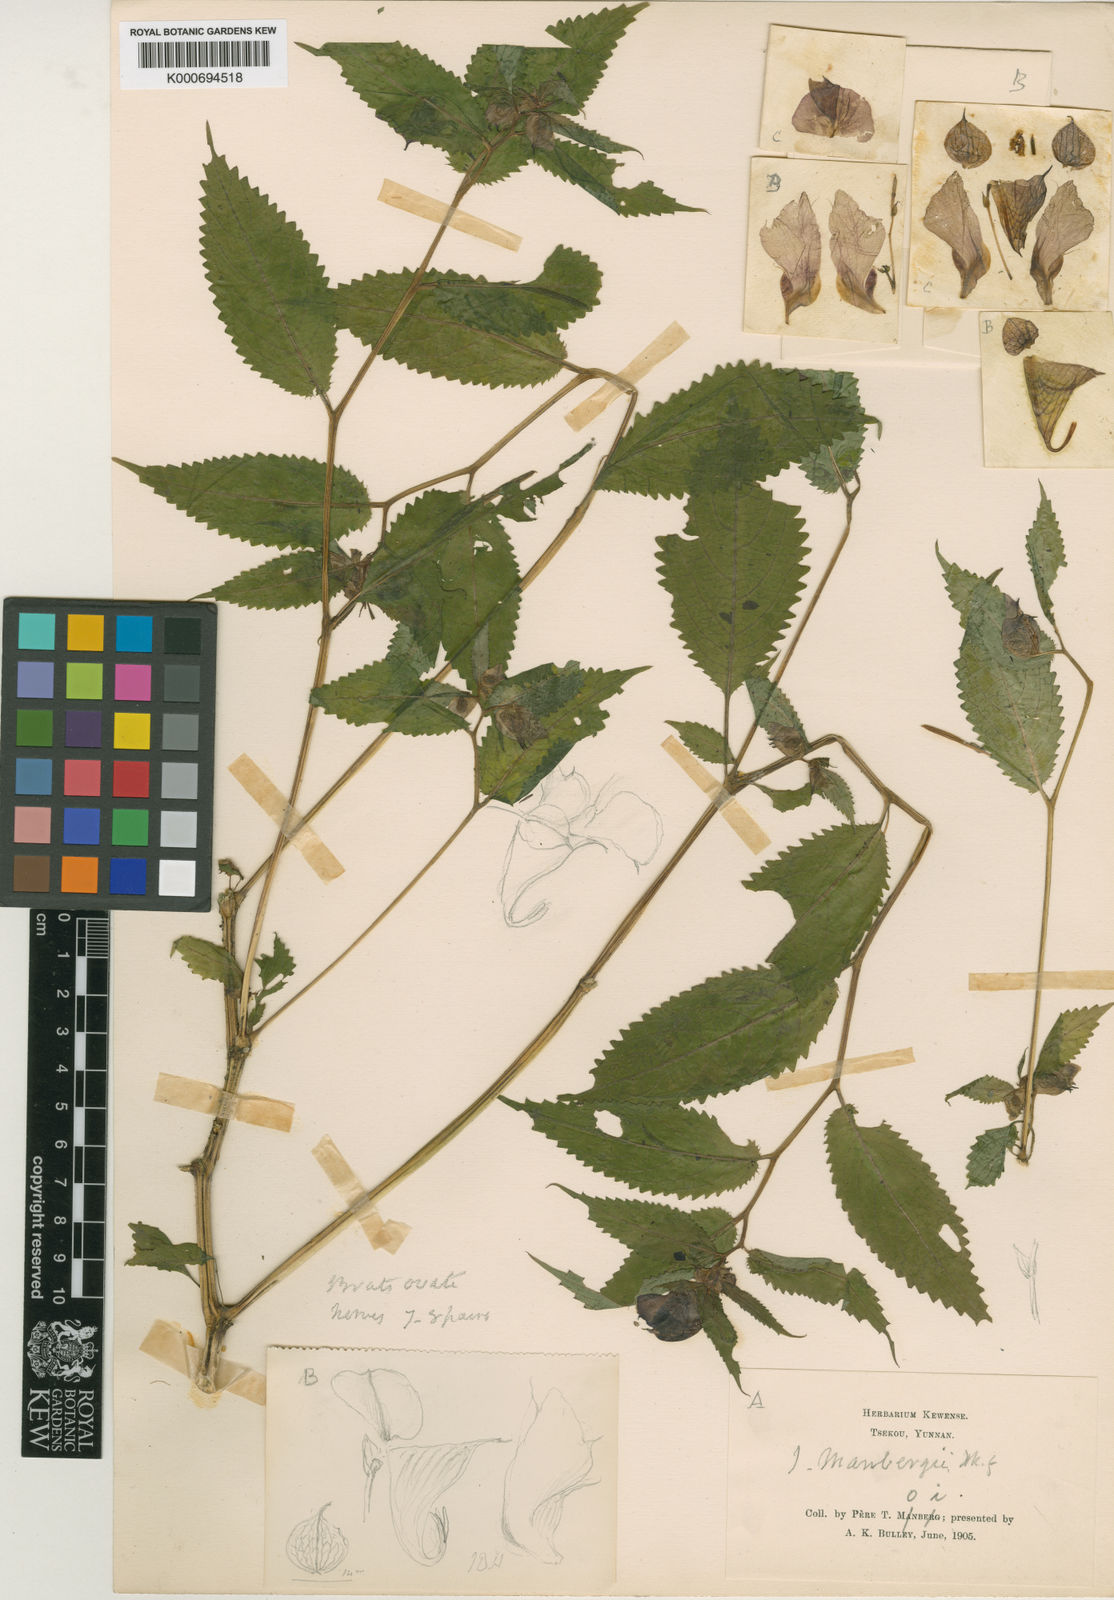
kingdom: Plantae
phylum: Tracheophyta
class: Magnoliopsida
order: Ericales
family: Balsaminaceae
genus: Impatiens
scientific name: Impatiens
